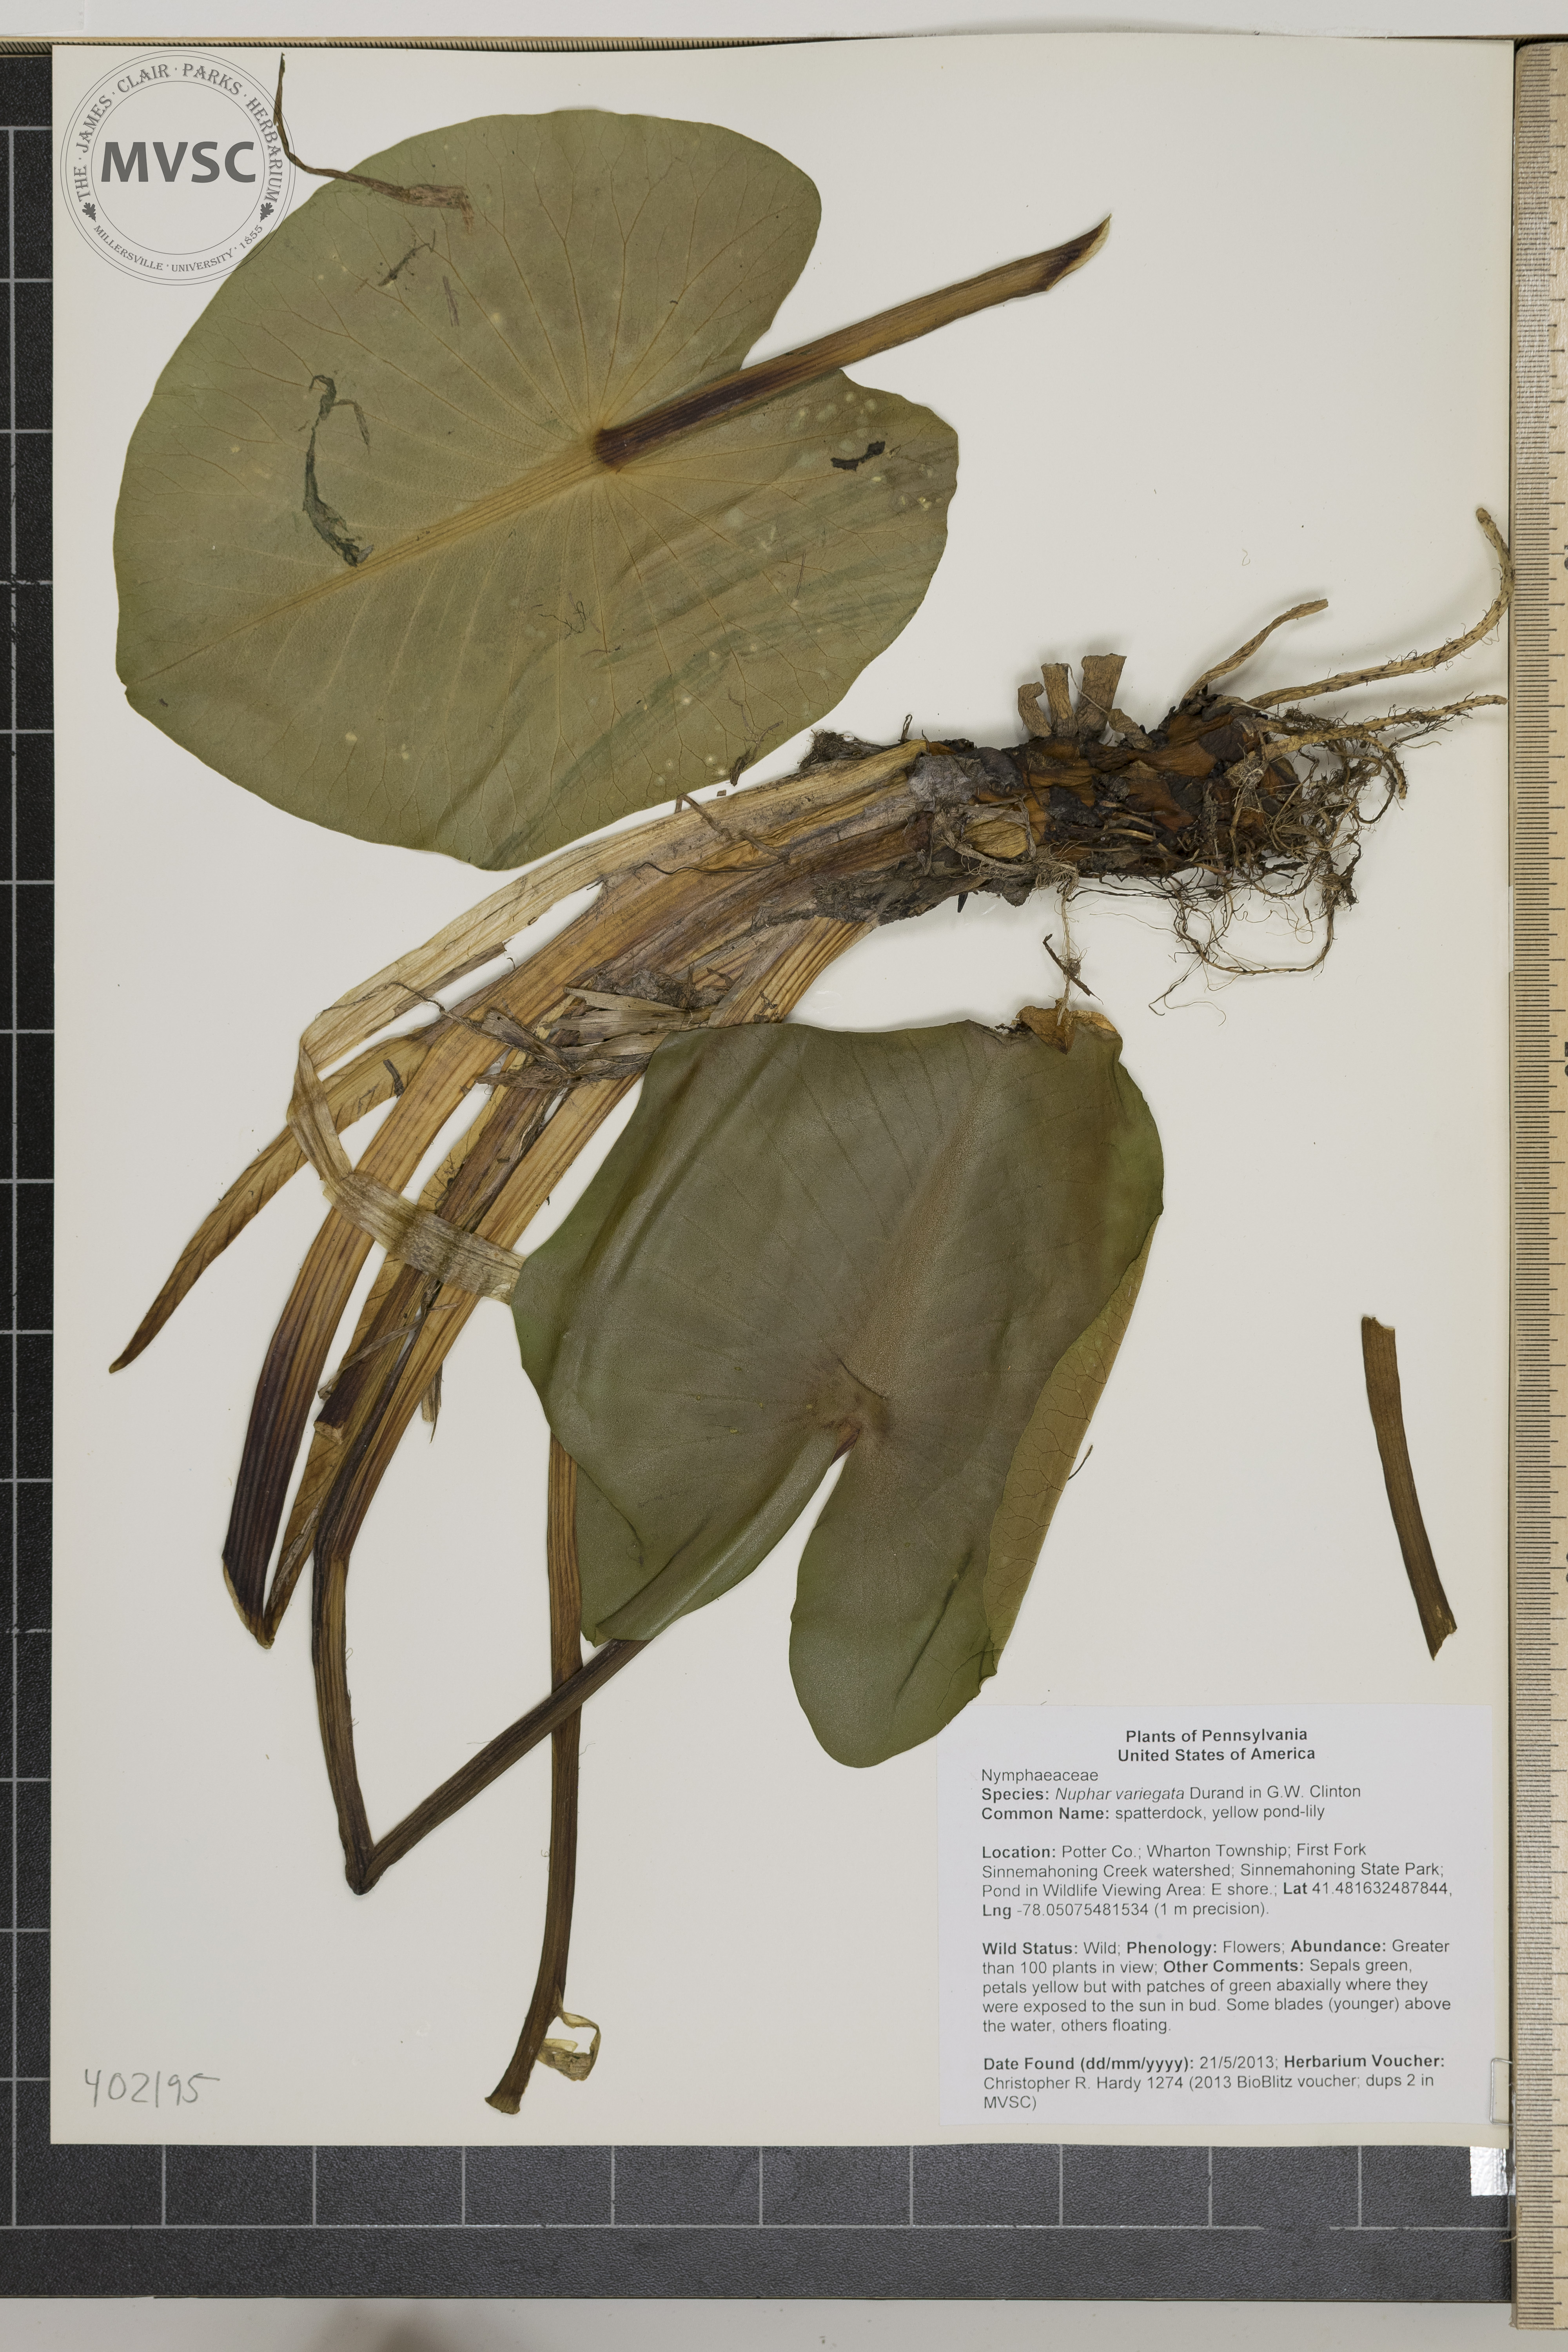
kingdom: Plantae
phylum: Tracheophyta
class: Magnoliopsida
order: Nymphaeales
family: Nymphaeaceae
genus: Nuphar
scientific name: Nuphar variegata
